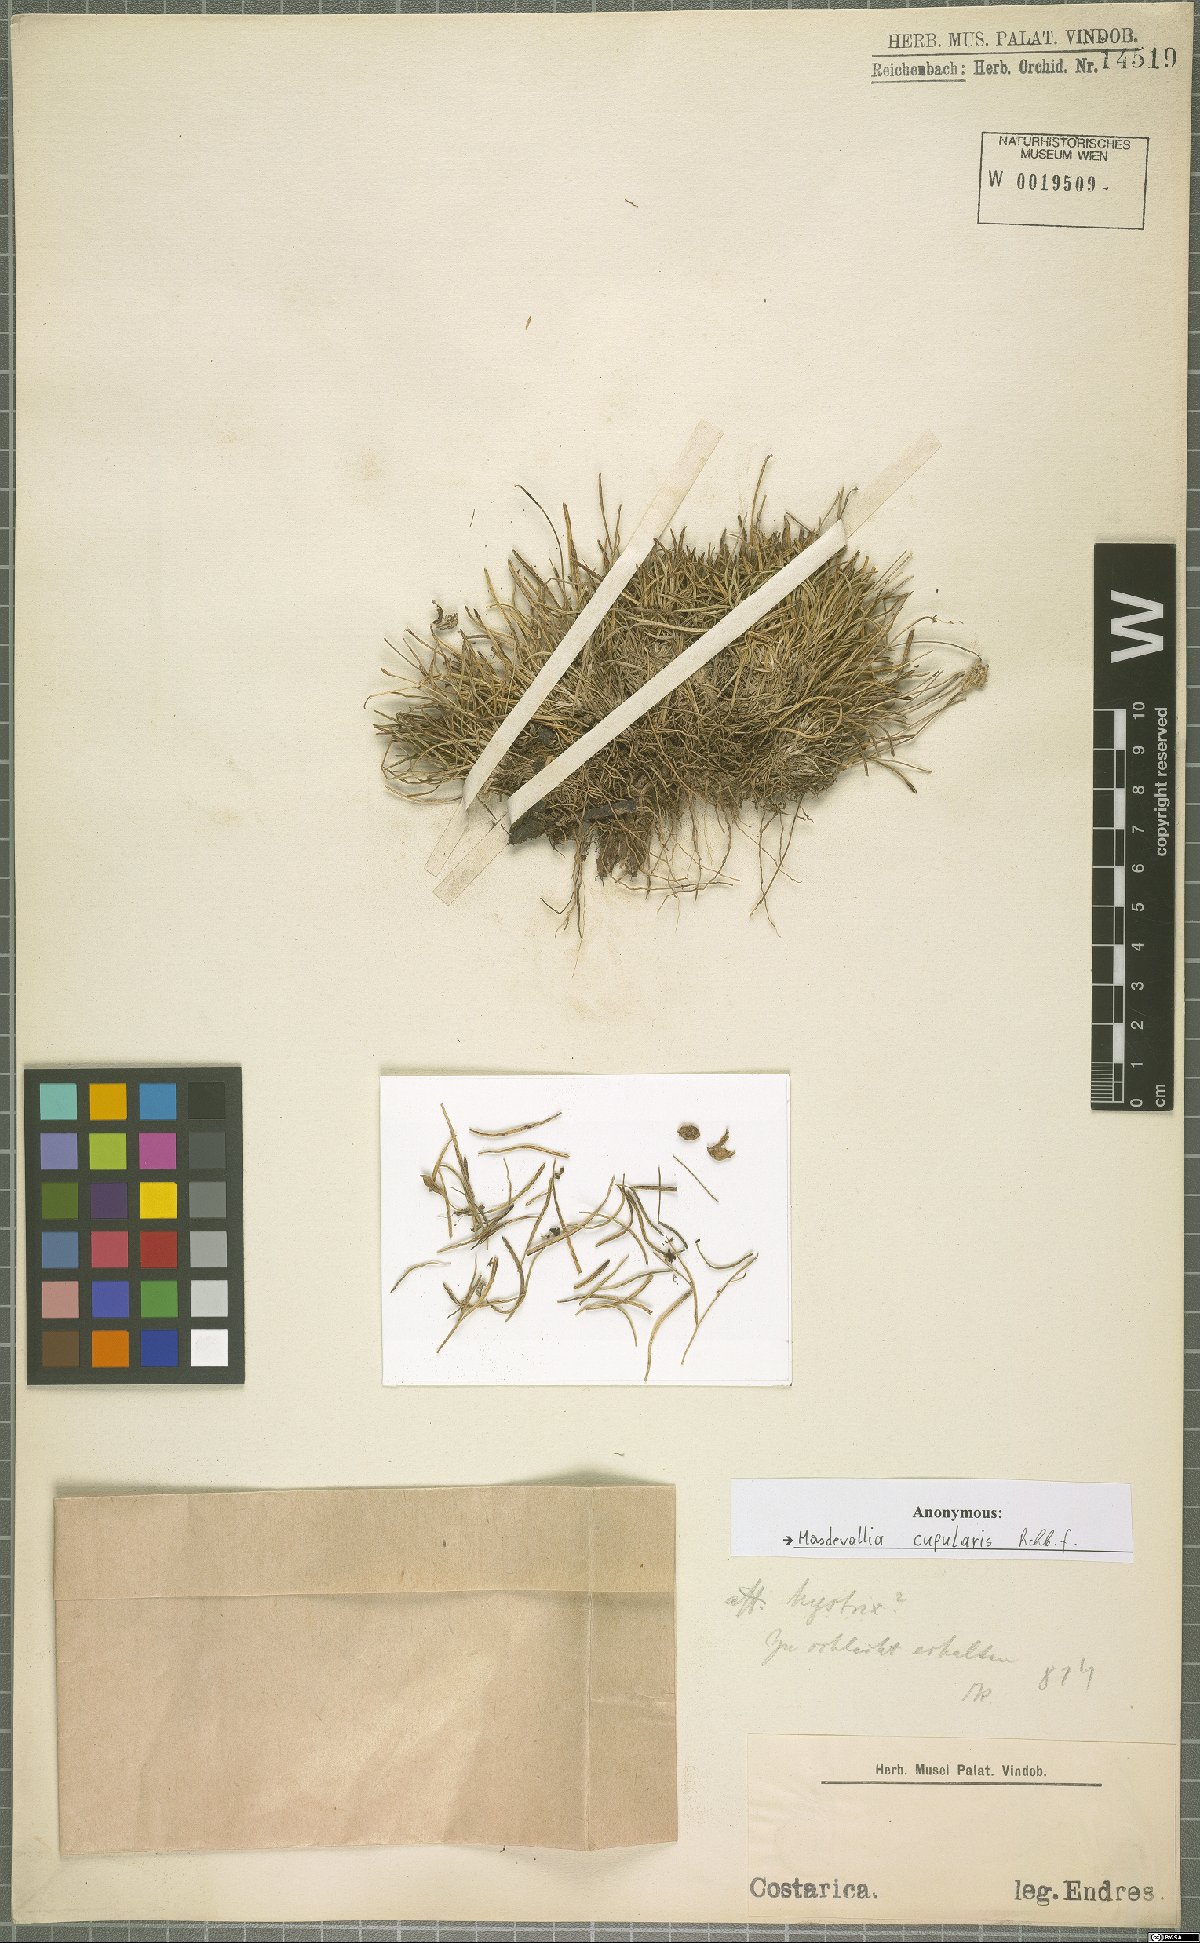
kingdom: Plantae
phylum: Tracheophyta
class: Liliopsida
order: Asparagales
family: Orchidaceae
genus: Diodonopsis
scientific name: Diodonopsis erinacea
